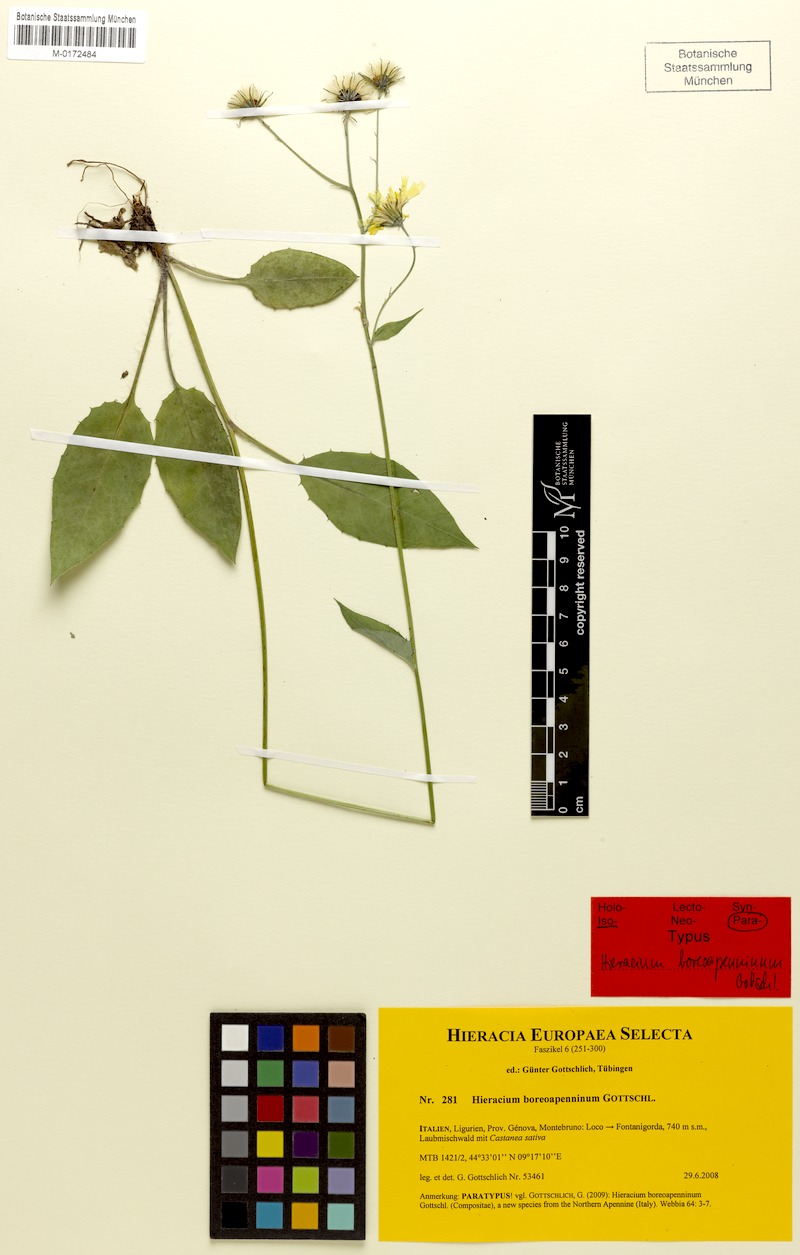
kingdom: Plantae
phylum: Tracheophyta
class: Magnoliopsida
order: Asterales
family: Asteraceae
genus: Hieracium
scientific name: Hieracium boreoapenninum
